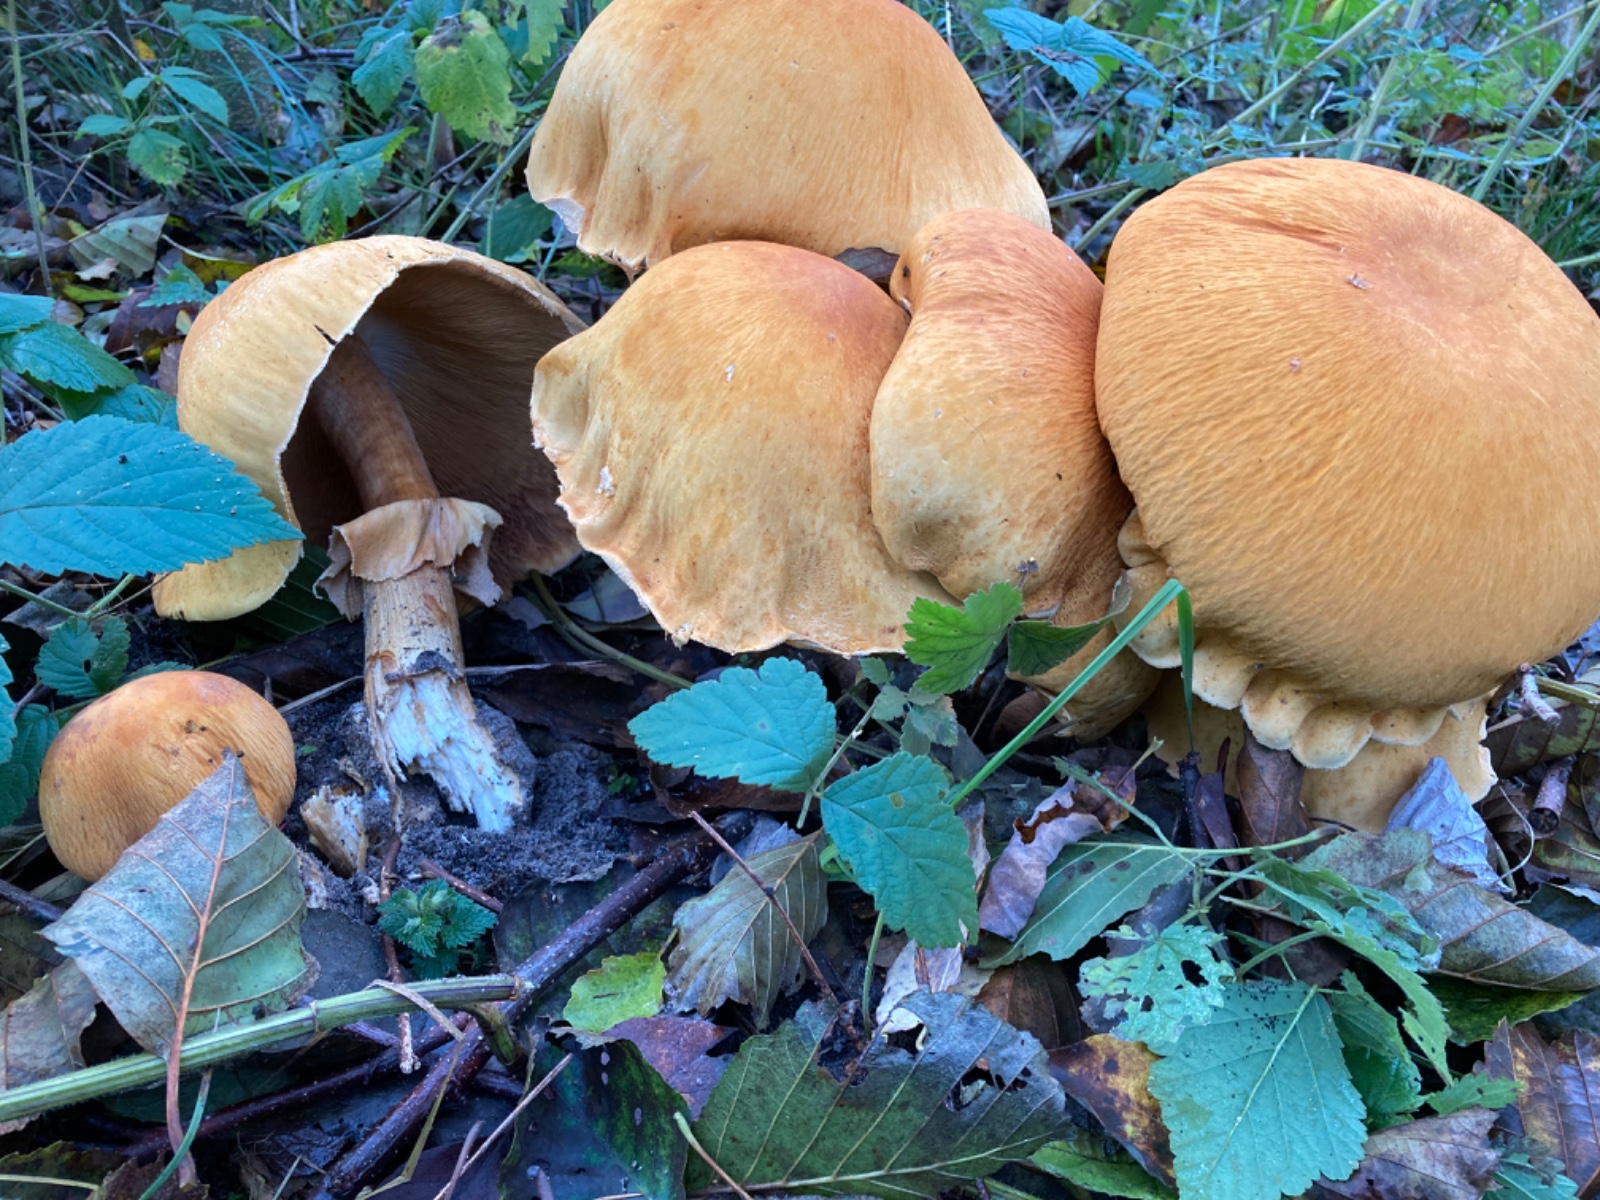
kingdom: Fungi
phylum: Basidiomycota
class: Agaricomycetes
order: Agaricales
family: Tricholomataceae
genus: Phaeolepiota
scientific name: Phaeolepiota aurea
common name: gyldenhat
